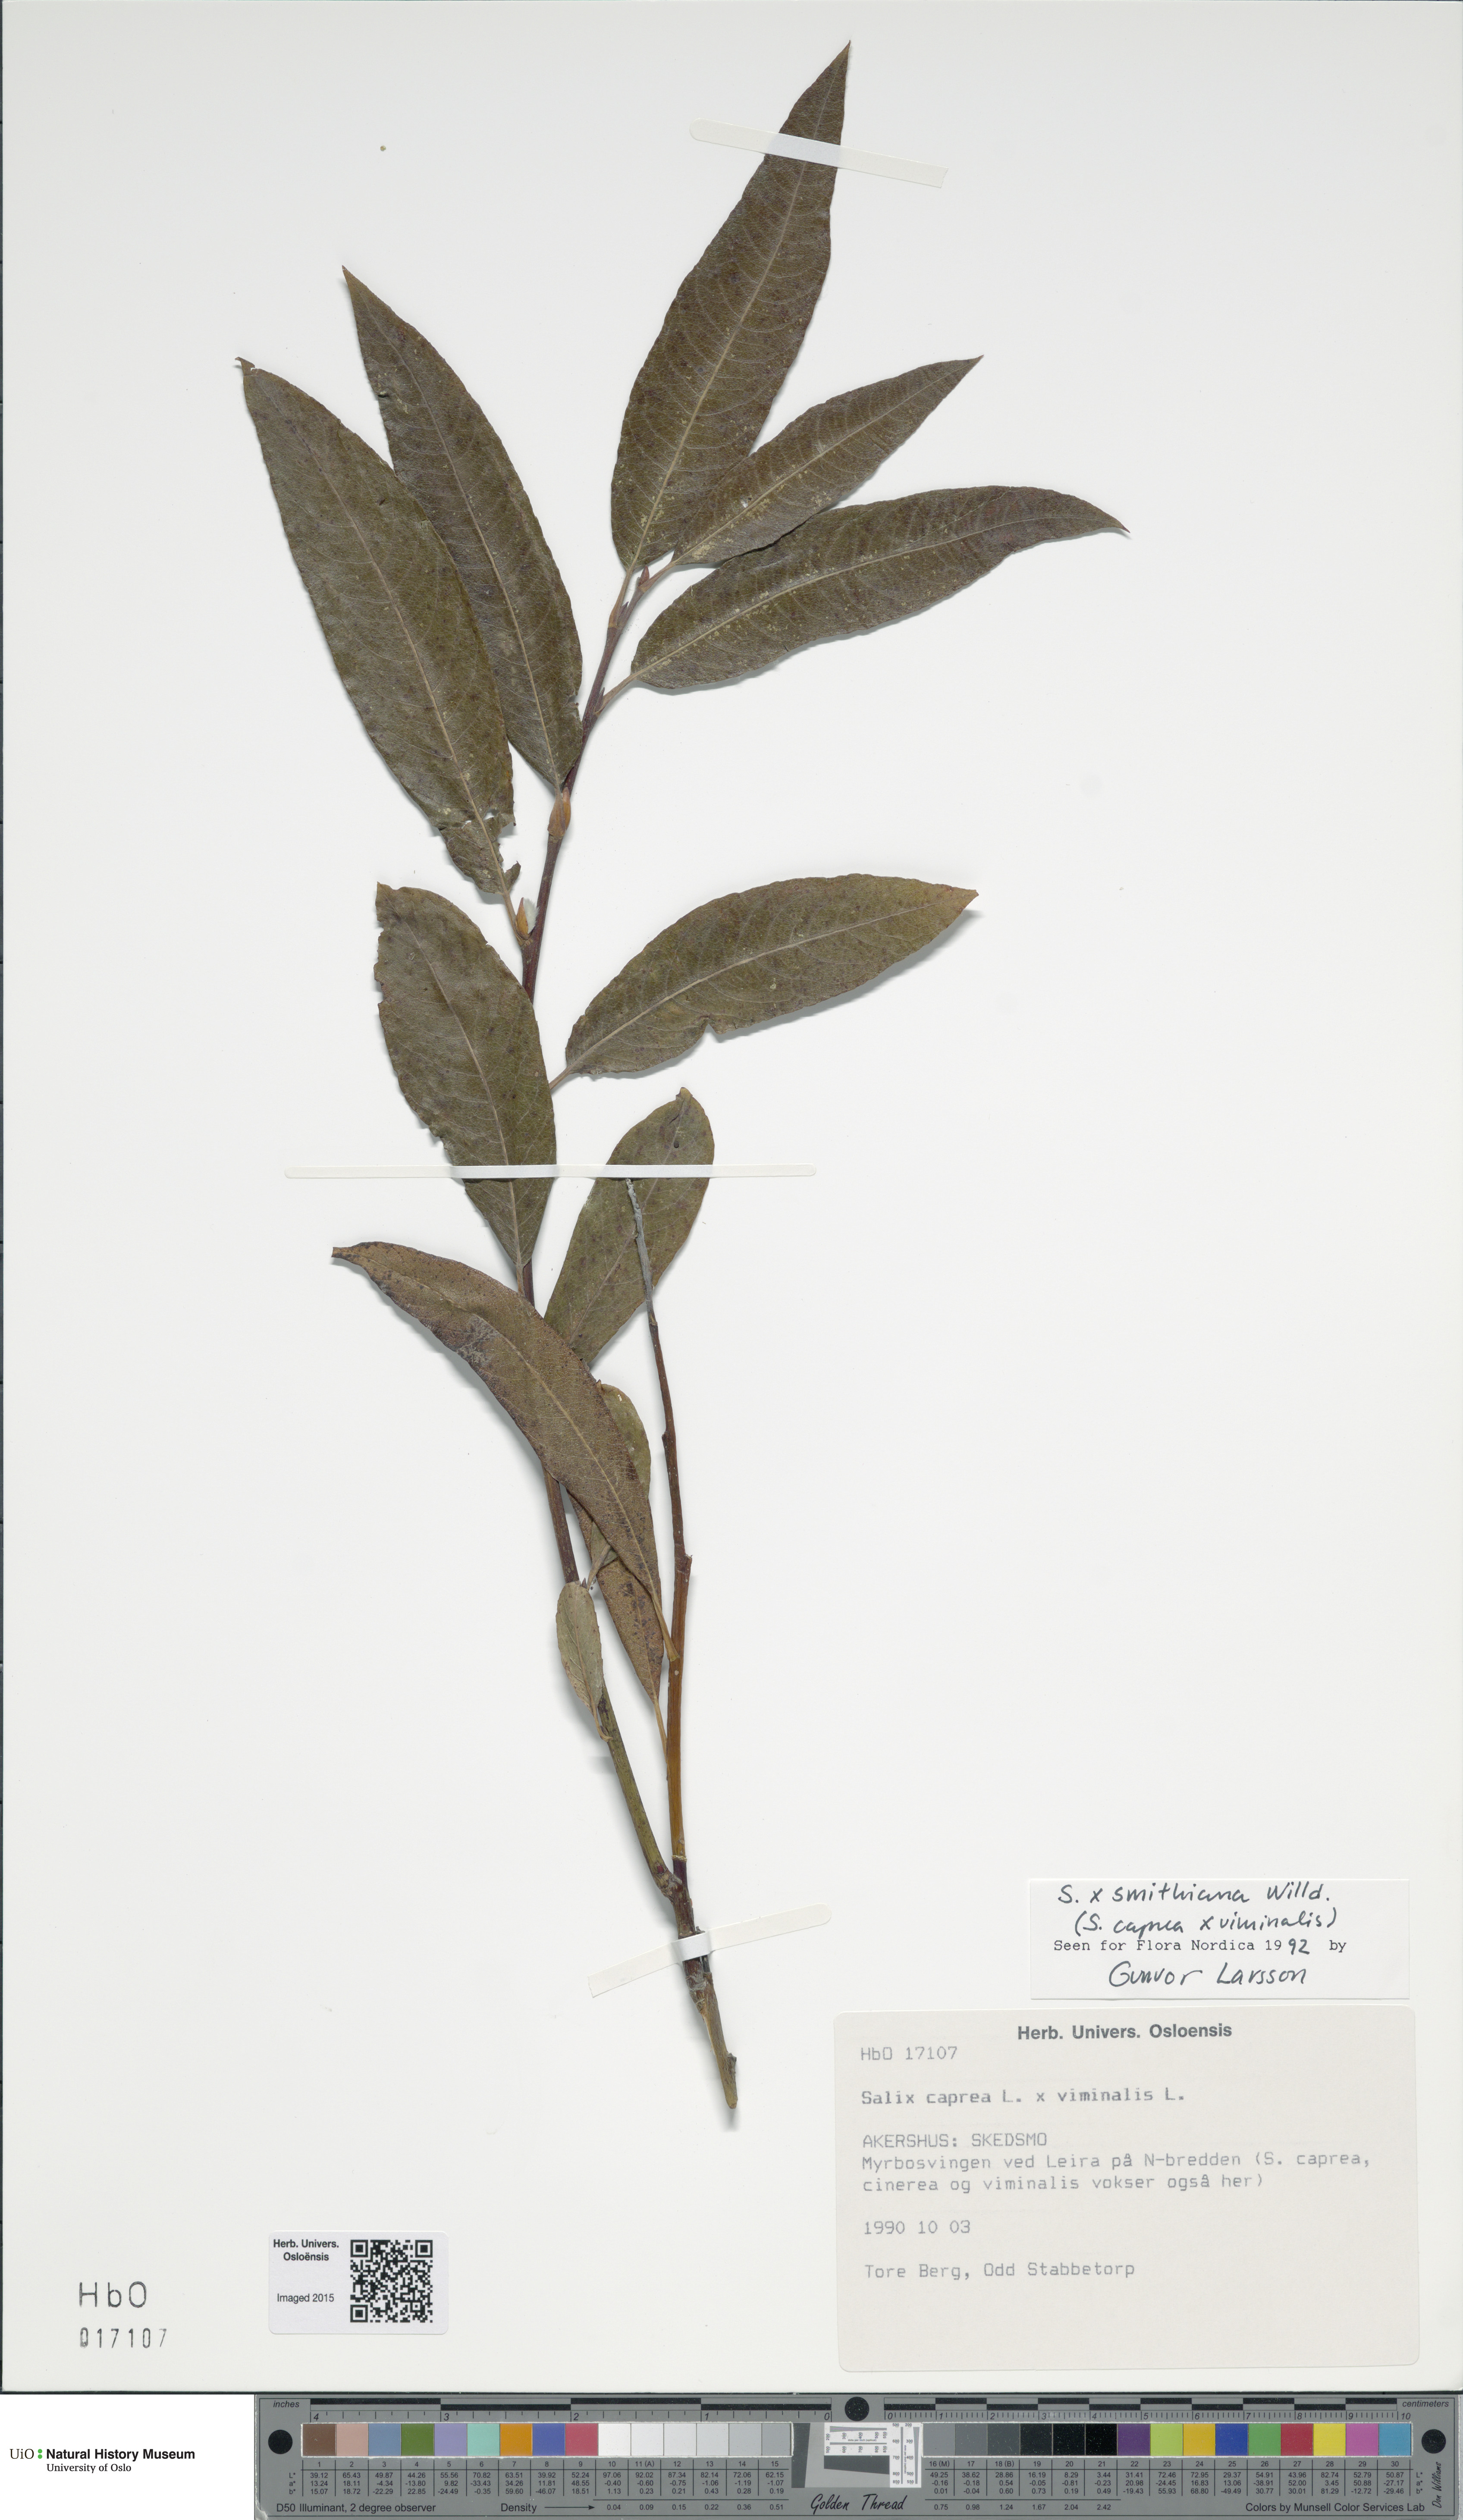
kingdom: Plantae
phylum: Tracheophyta
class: Magnoliopsida
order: Malpighiales
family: Salicaceae
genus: Salix
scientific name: Salix
